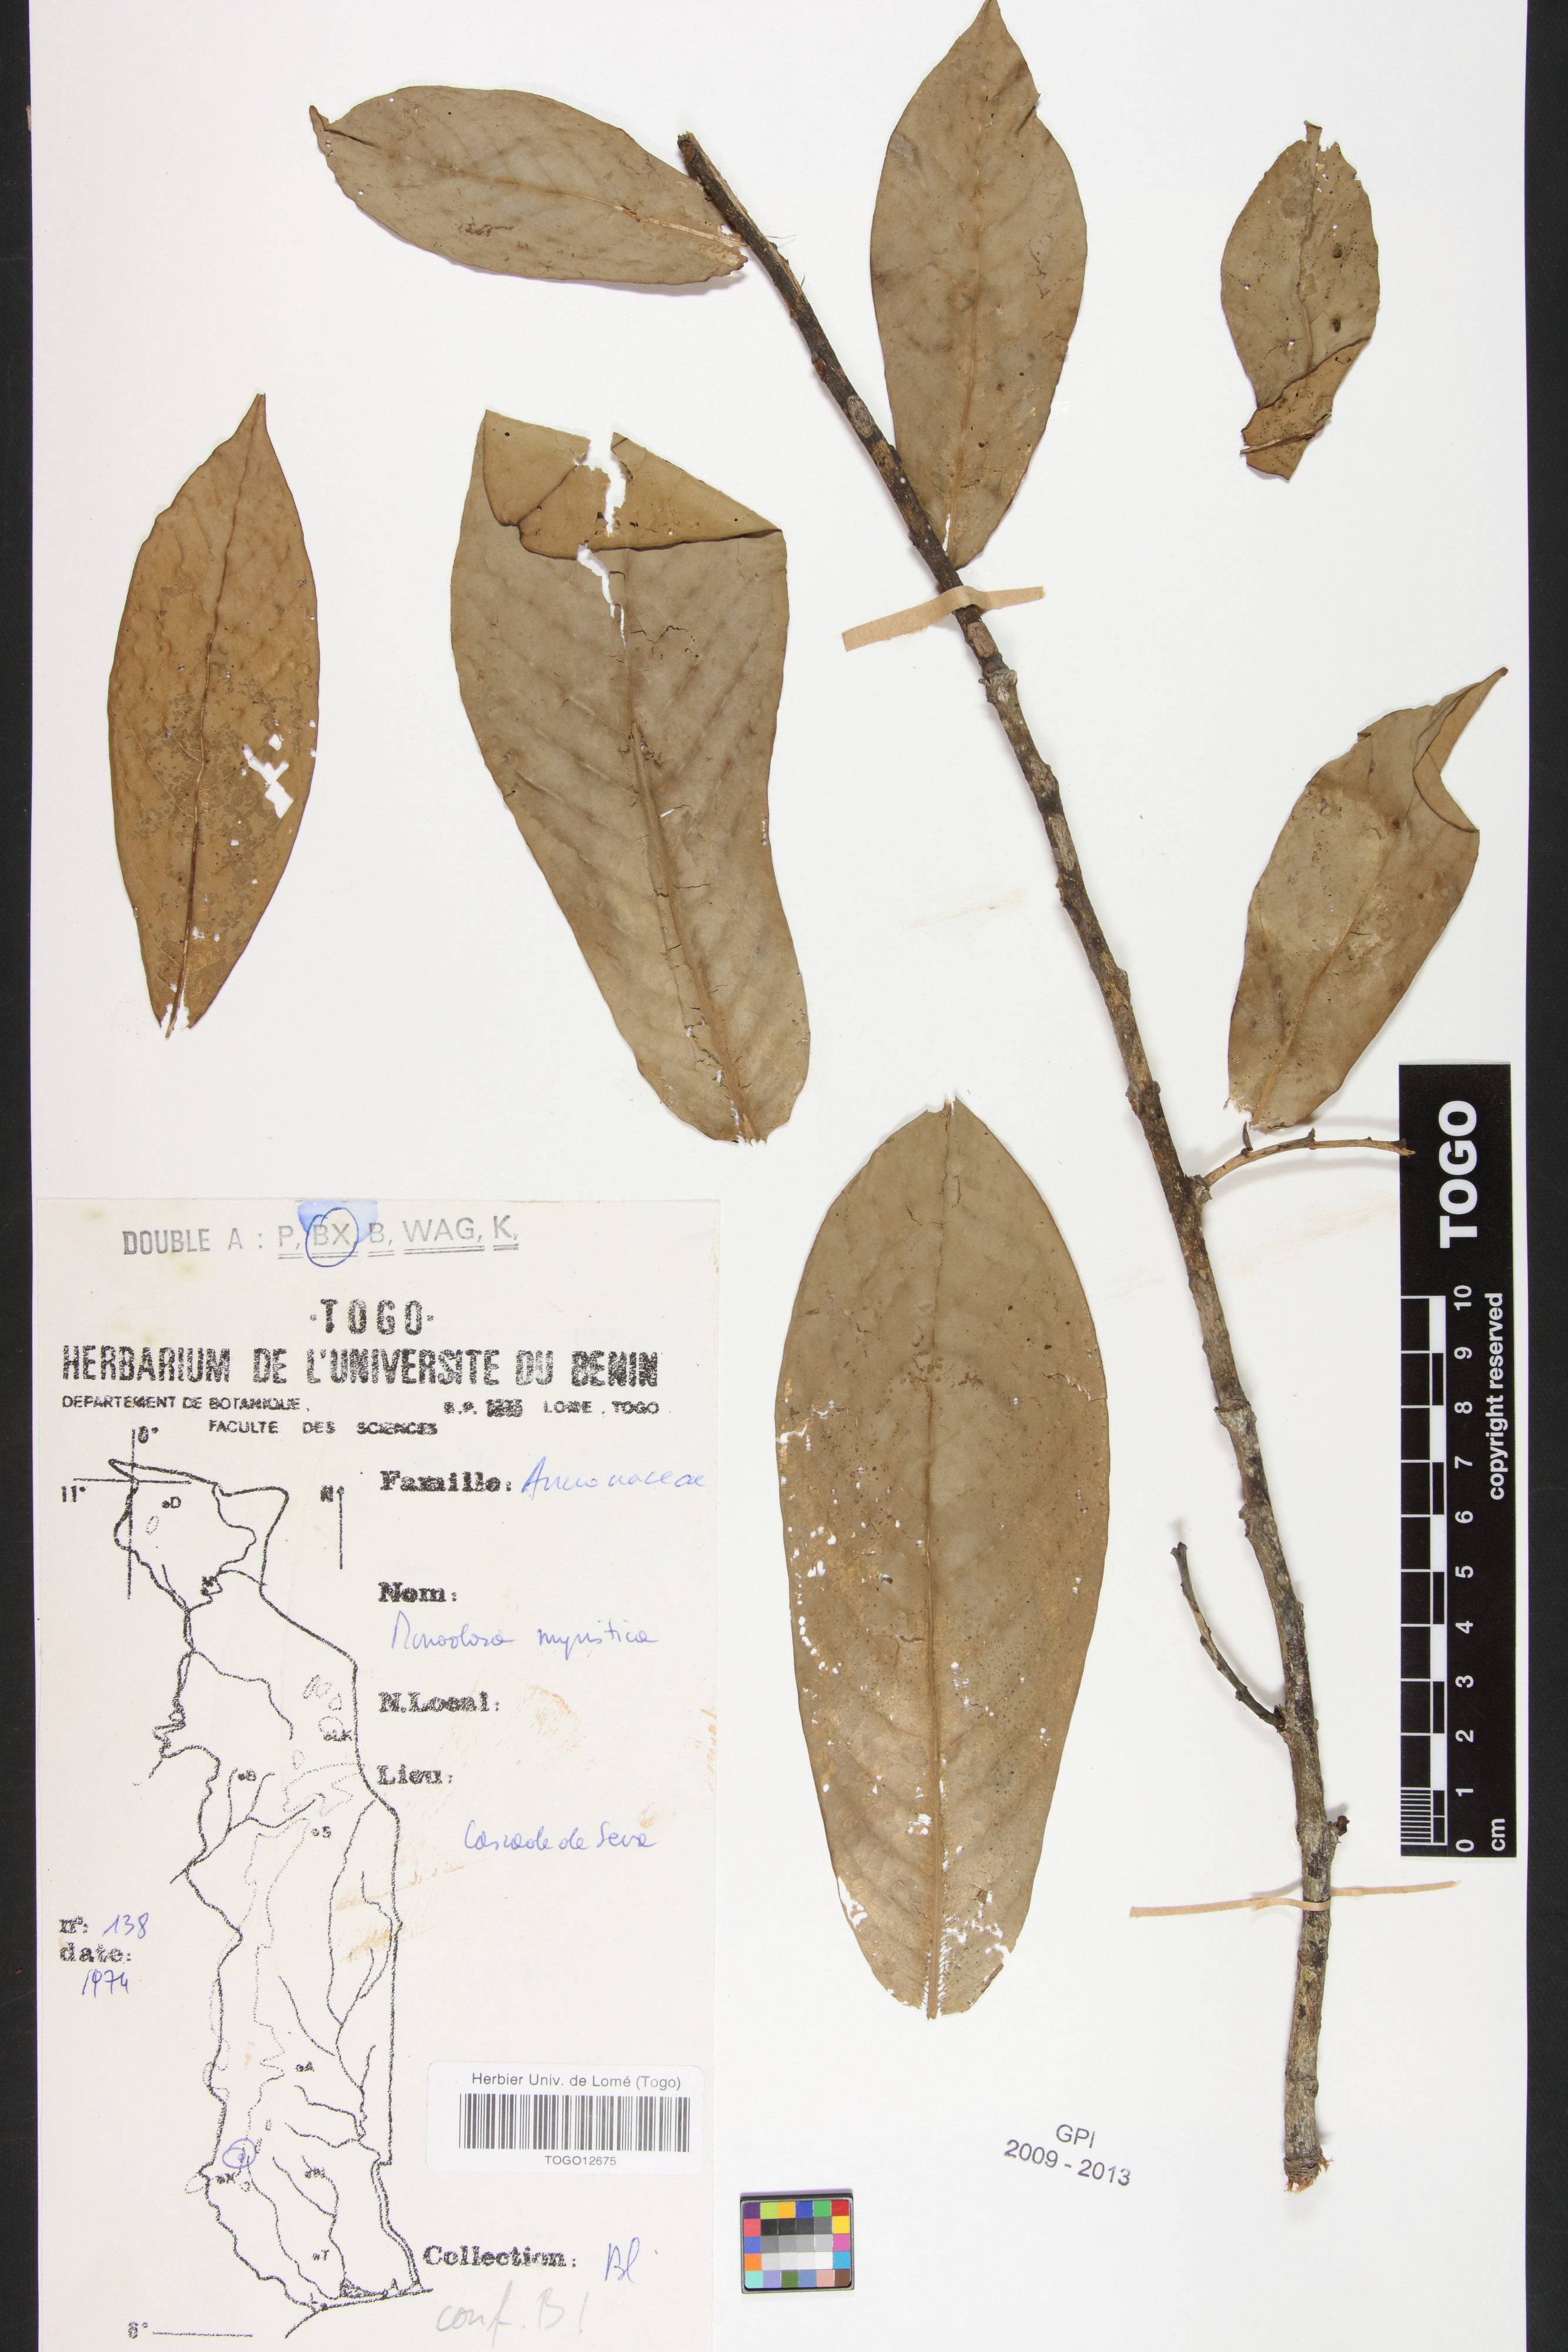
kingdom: Plantae
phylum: Tracheophyta
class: Magnoliopsida
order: Magnoliales
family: Annonaceae
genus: Monodora
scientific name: Monodora myristica
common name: African nutmeg
